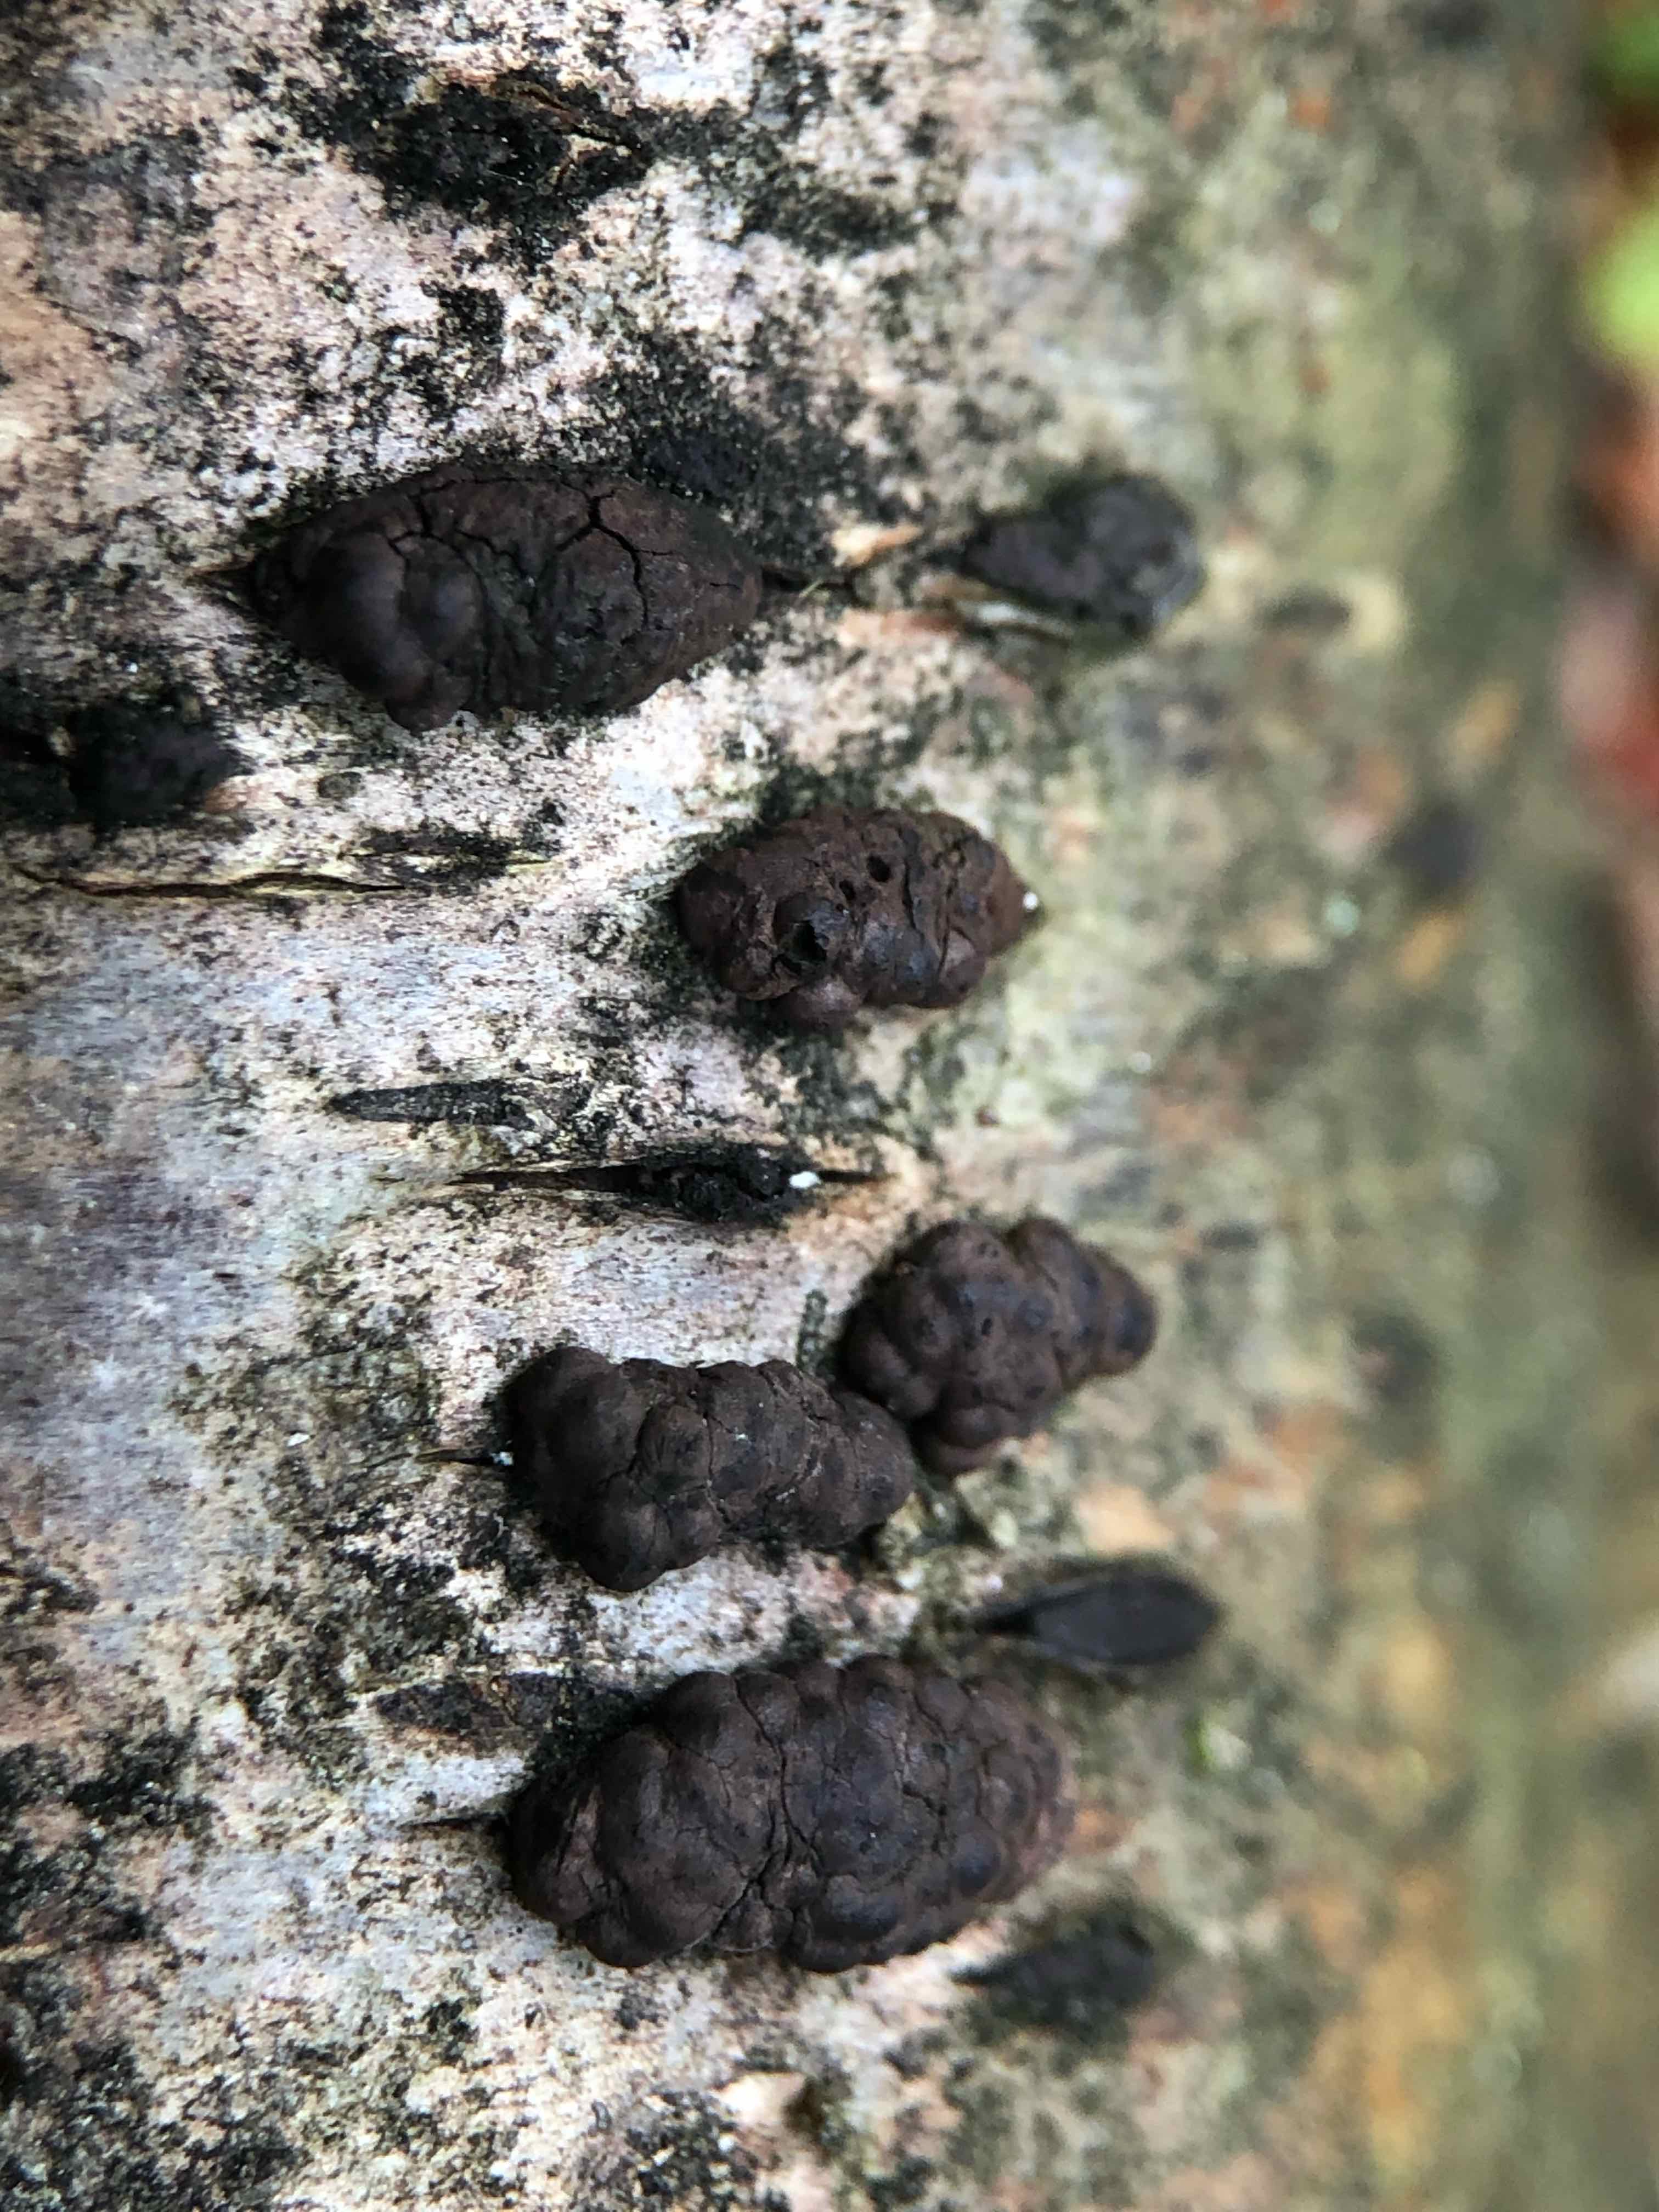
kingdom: Fungi
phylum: Ascomycota
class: Sordariomycetes
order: Xylariales
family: Hypoxylaceae
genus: Jackrogersella
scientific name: Jackrogersella multiformis
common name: foranderlig kulbær
